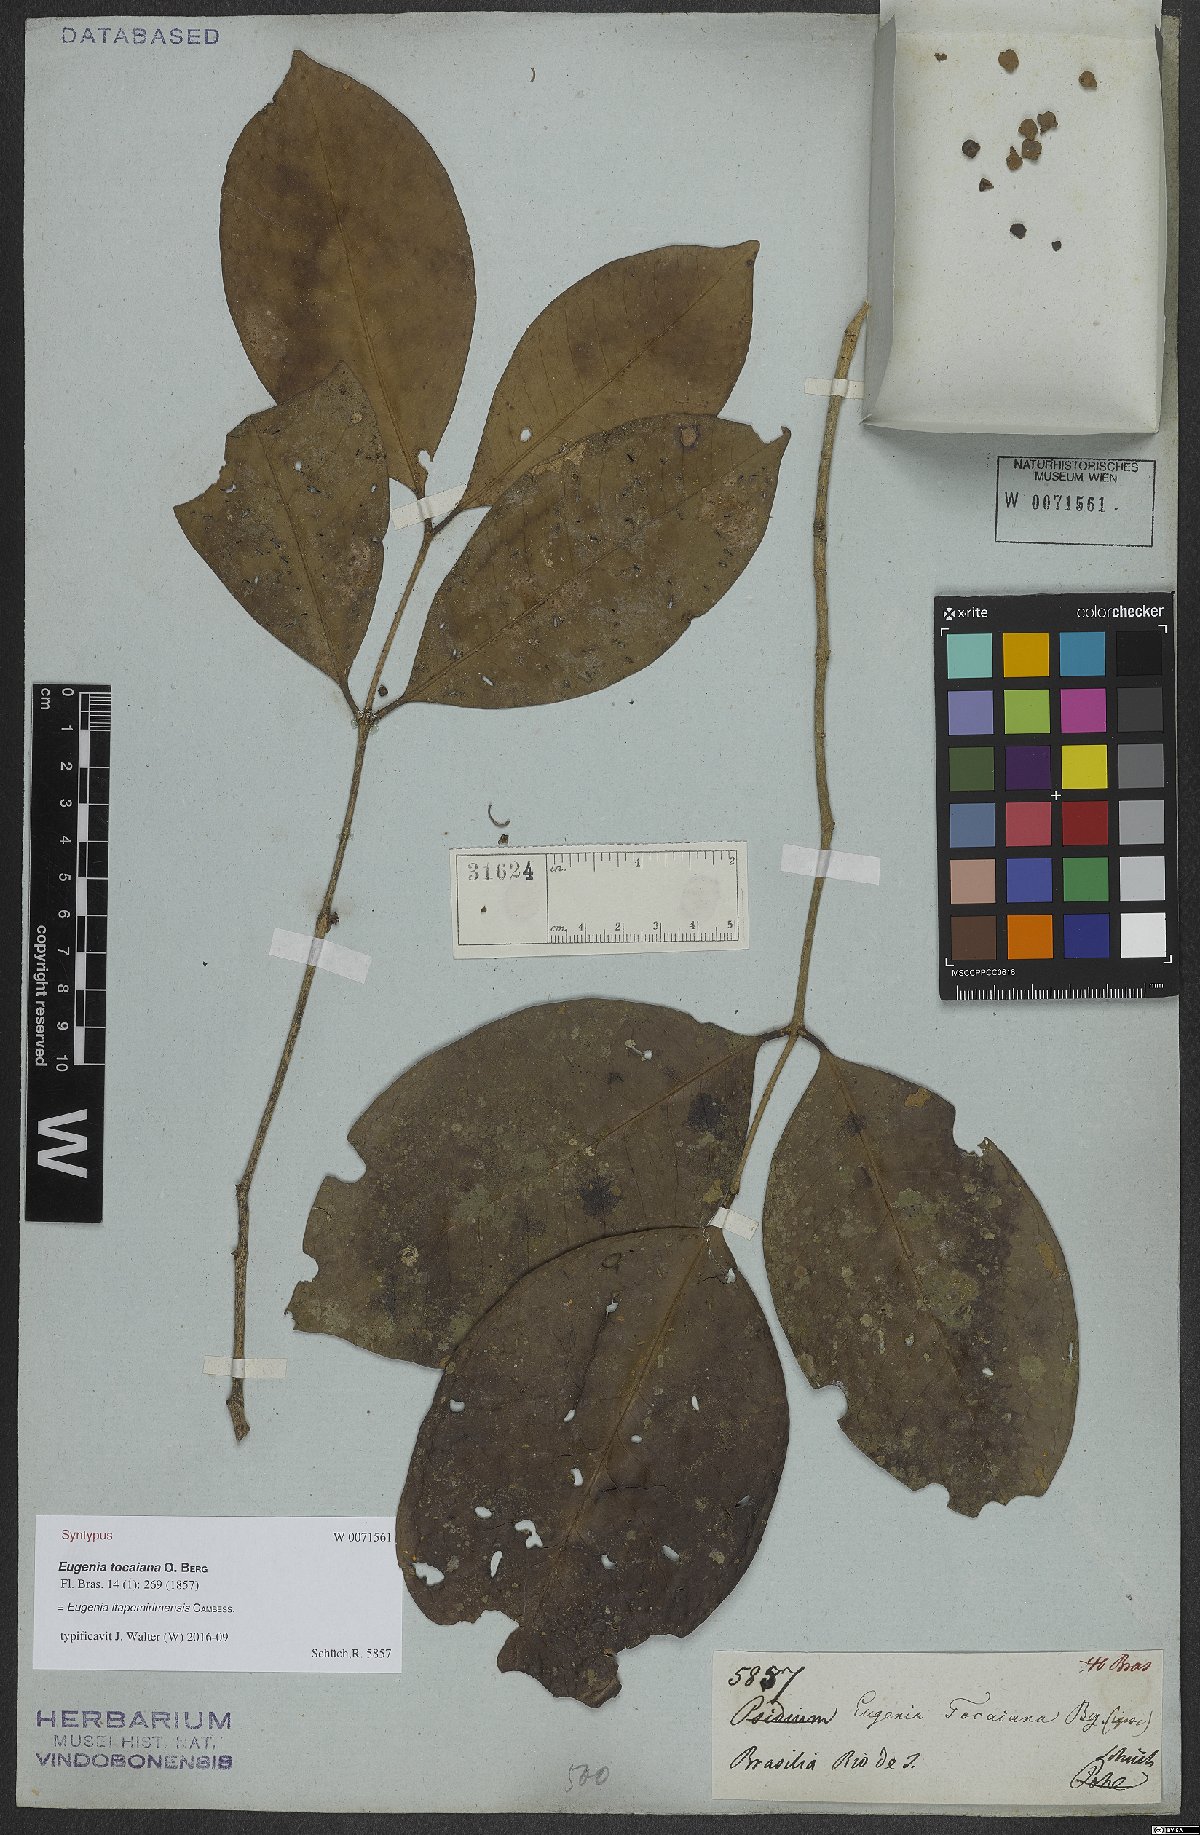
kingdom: Plantae
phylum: Tracheophyta
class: Magnoliopsida
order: Myrtales
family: Myrtaceae
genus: Eugenia
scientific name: Eugenia itapemirimensis
